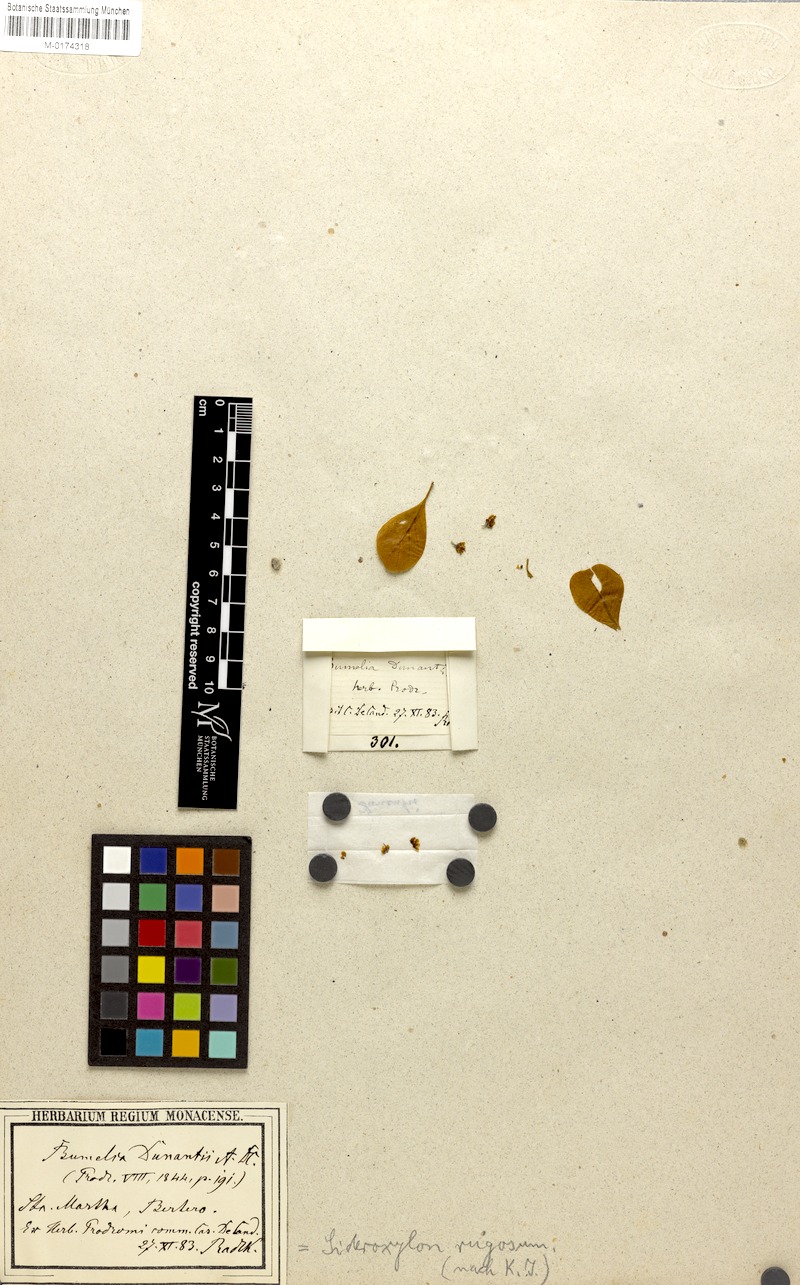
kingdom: Plantae
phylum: Tracheophyta
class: Magnoliopsida
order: Ericales
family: Sapotaceae
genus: Sideroxylon
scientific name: Sideroxylon obtusifolium
